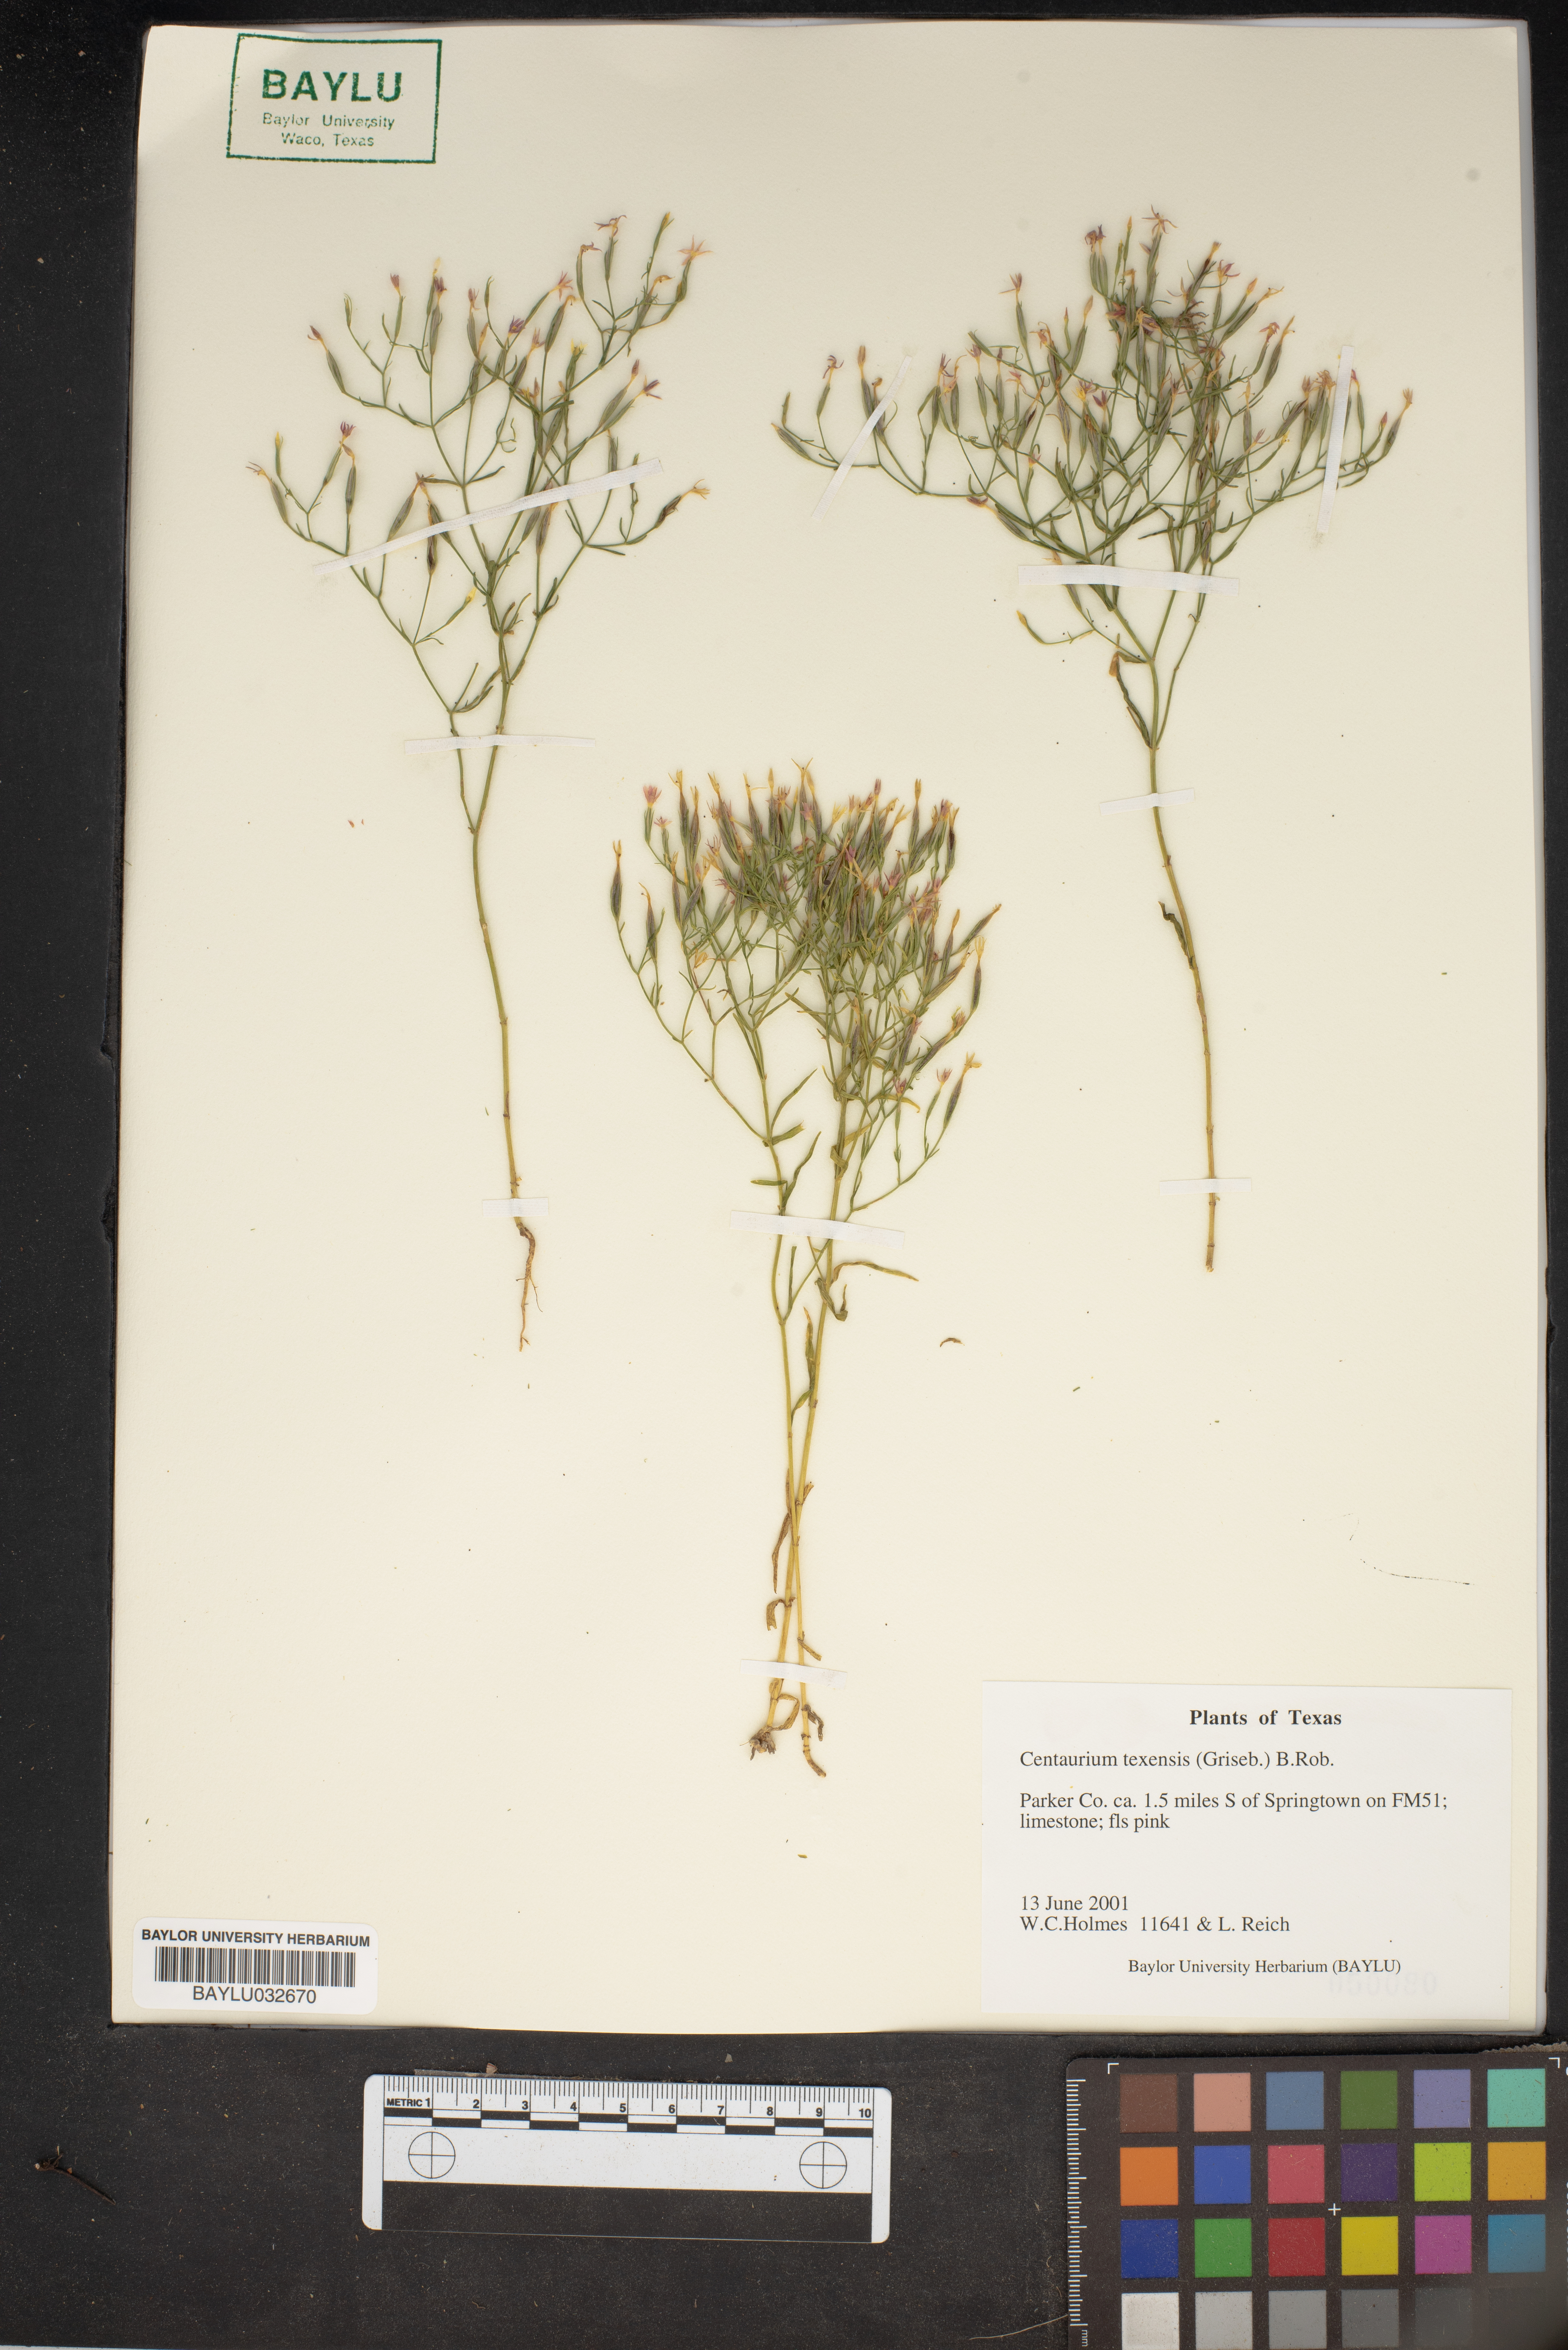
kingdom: Plantae
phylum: Tracheophyta
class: Magnoliopsida
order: Gentianales
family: Gentianaceae
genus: Zeltnera
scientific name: Zeltnera texensis
